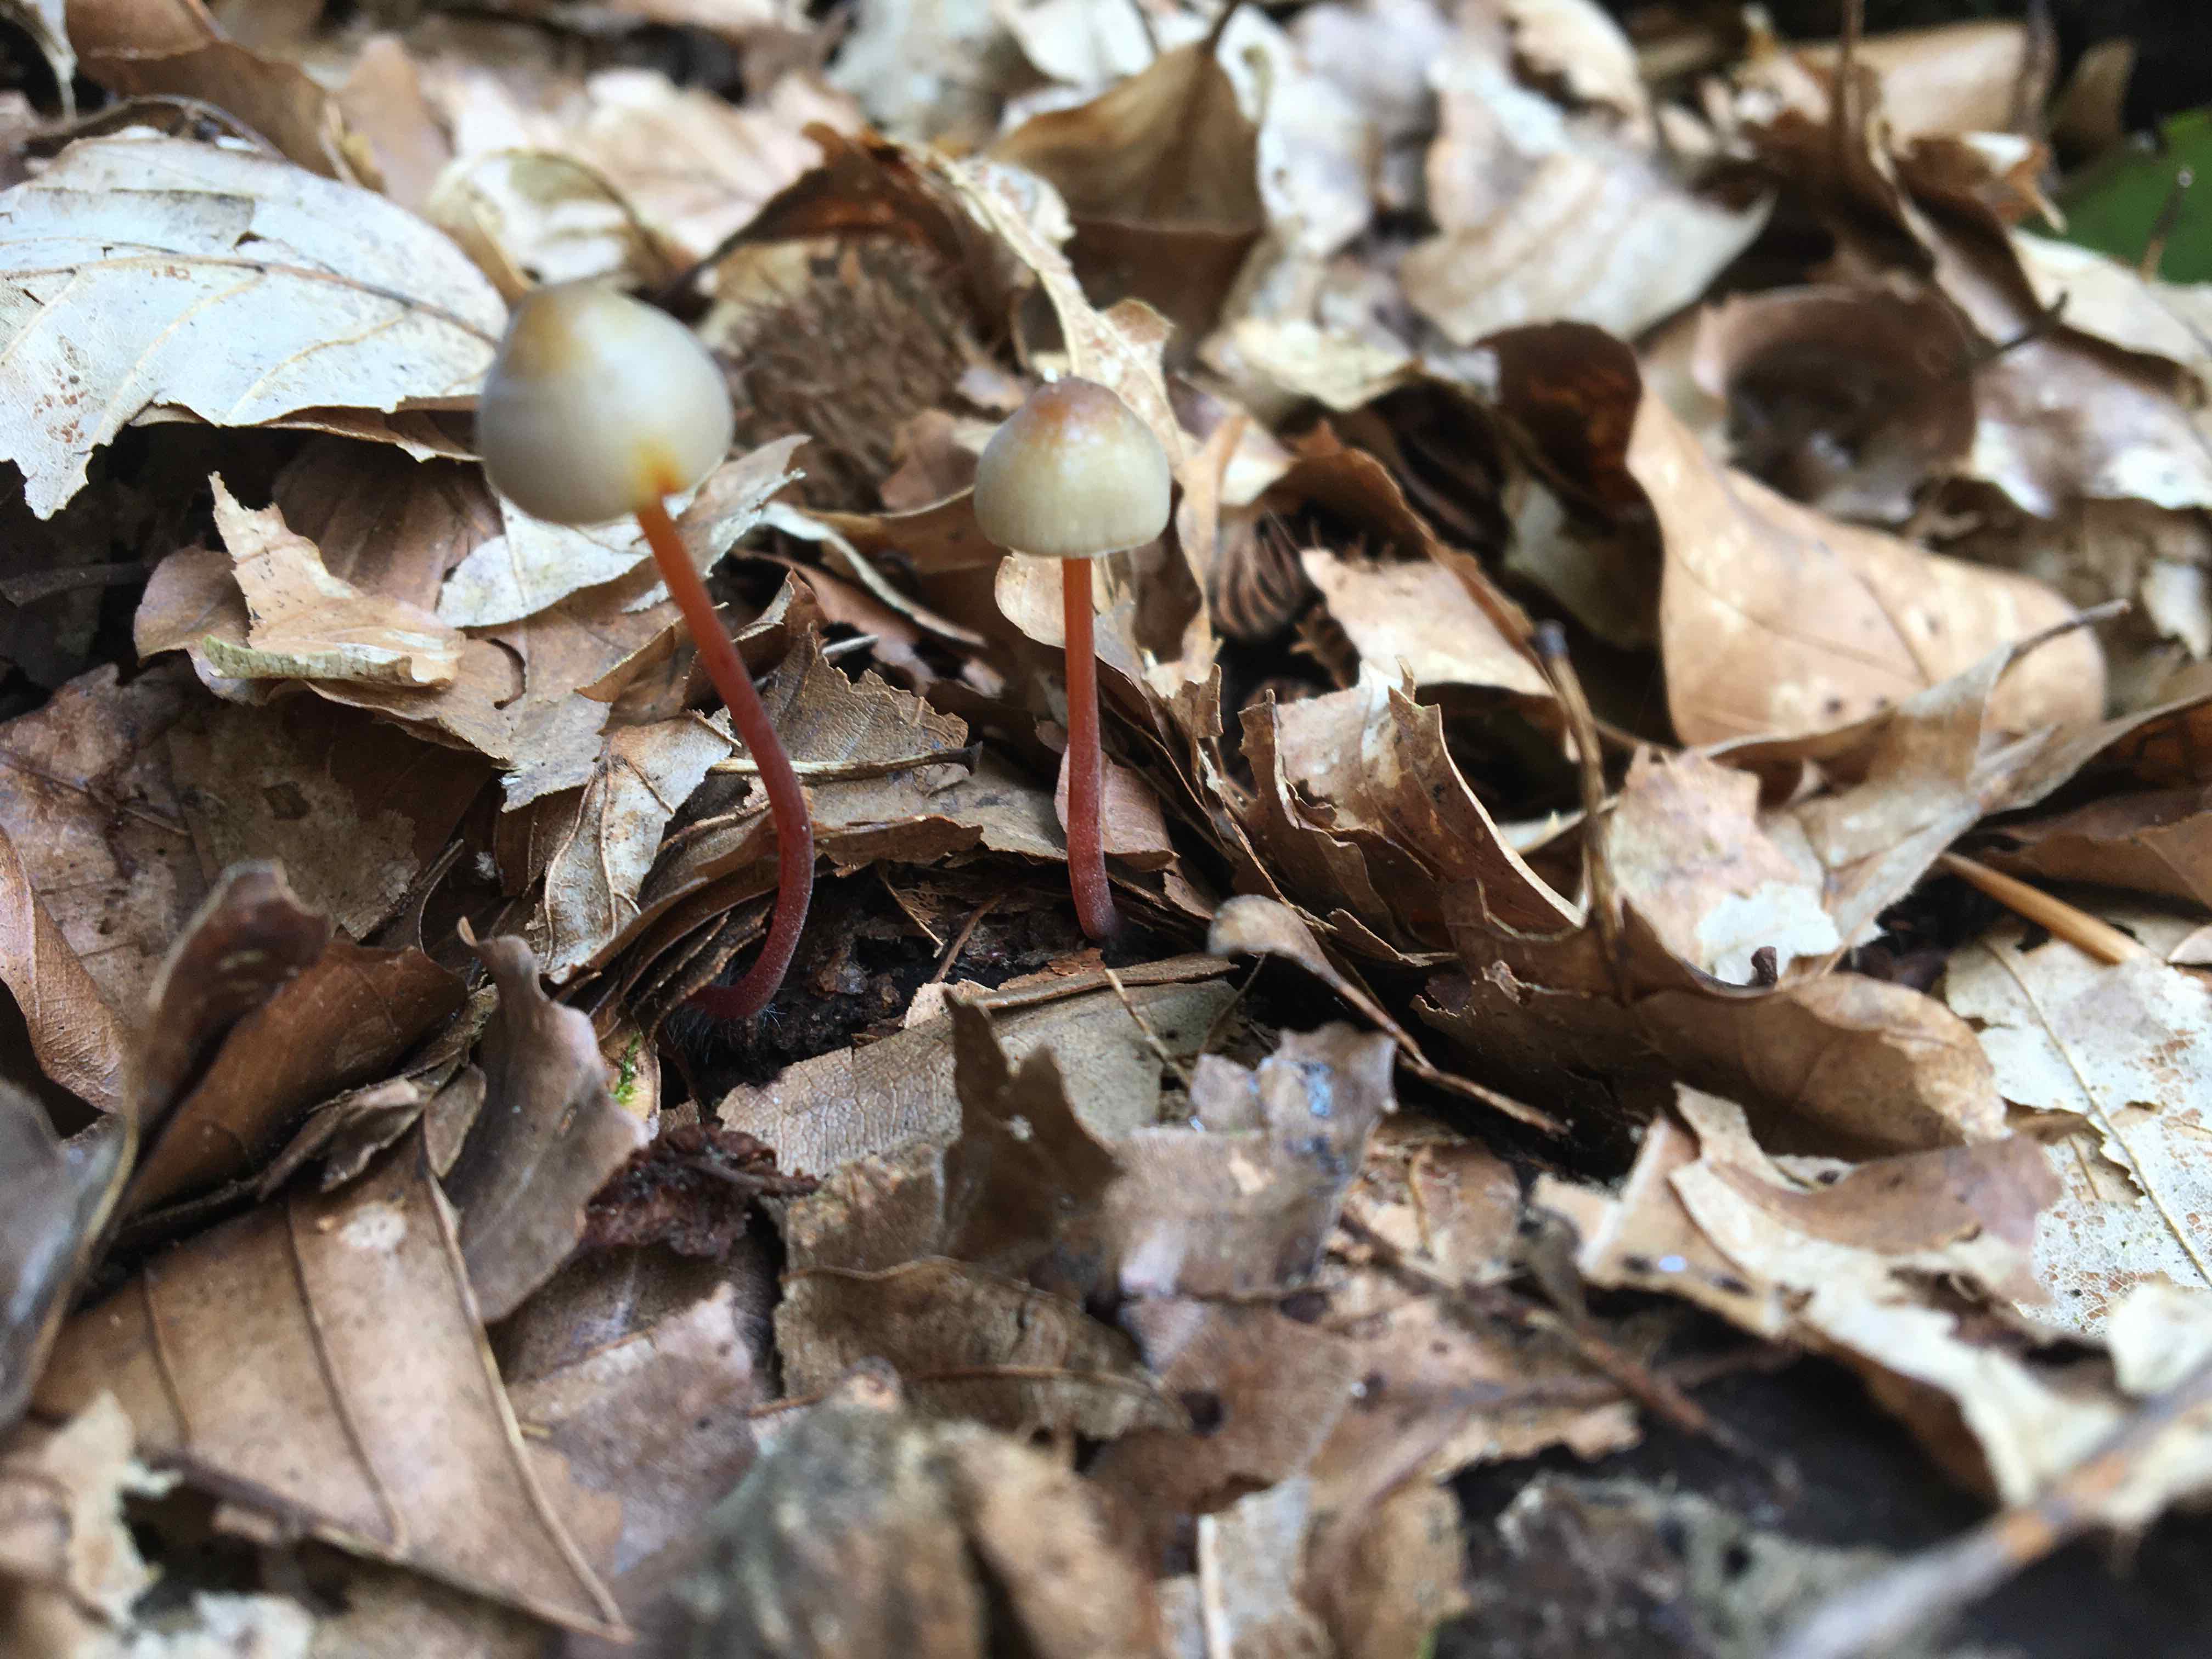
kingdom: Fungi
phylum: Basidiomycota
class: Agaricomycetes
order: Agaricales
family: Mycenaceae
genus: Mycena
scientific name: Mycena crocata
